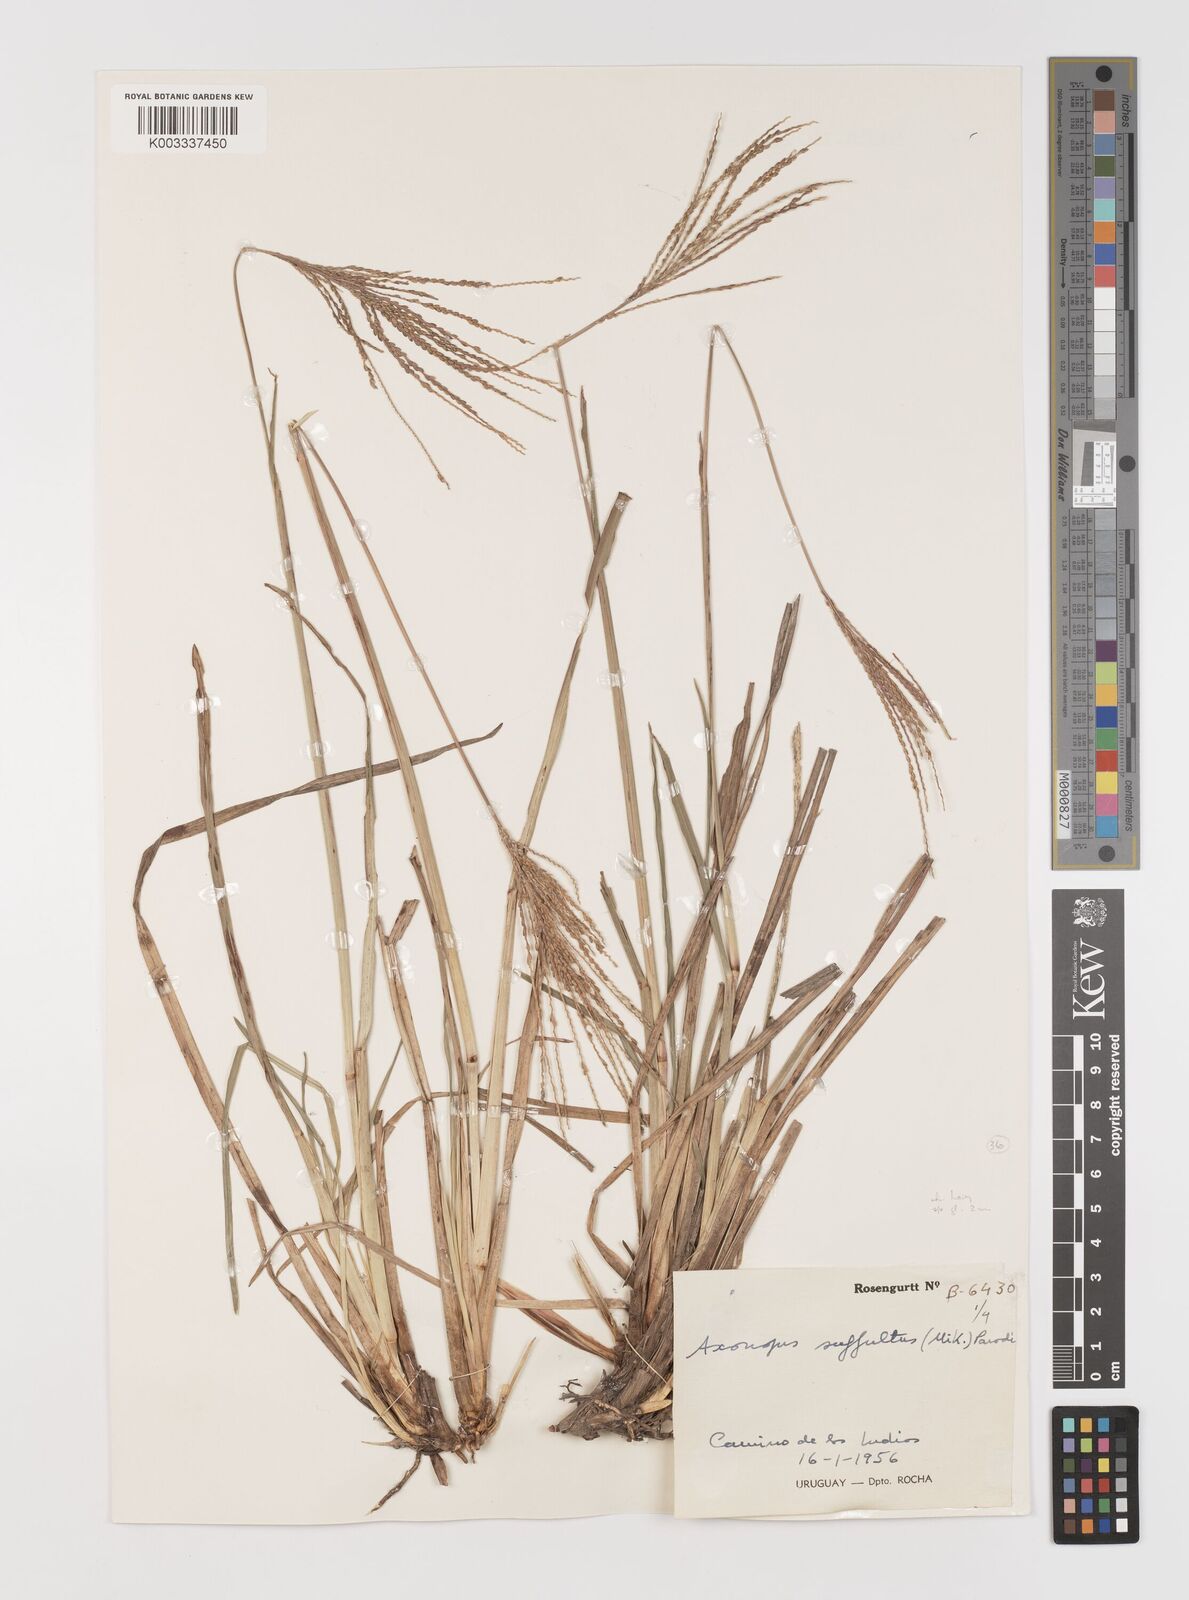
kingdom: Plantae
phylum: Tracheophyta
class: Liliopsida
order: Poales
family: Poaceae
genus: Axonopus
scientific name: Axonopus argentinus
